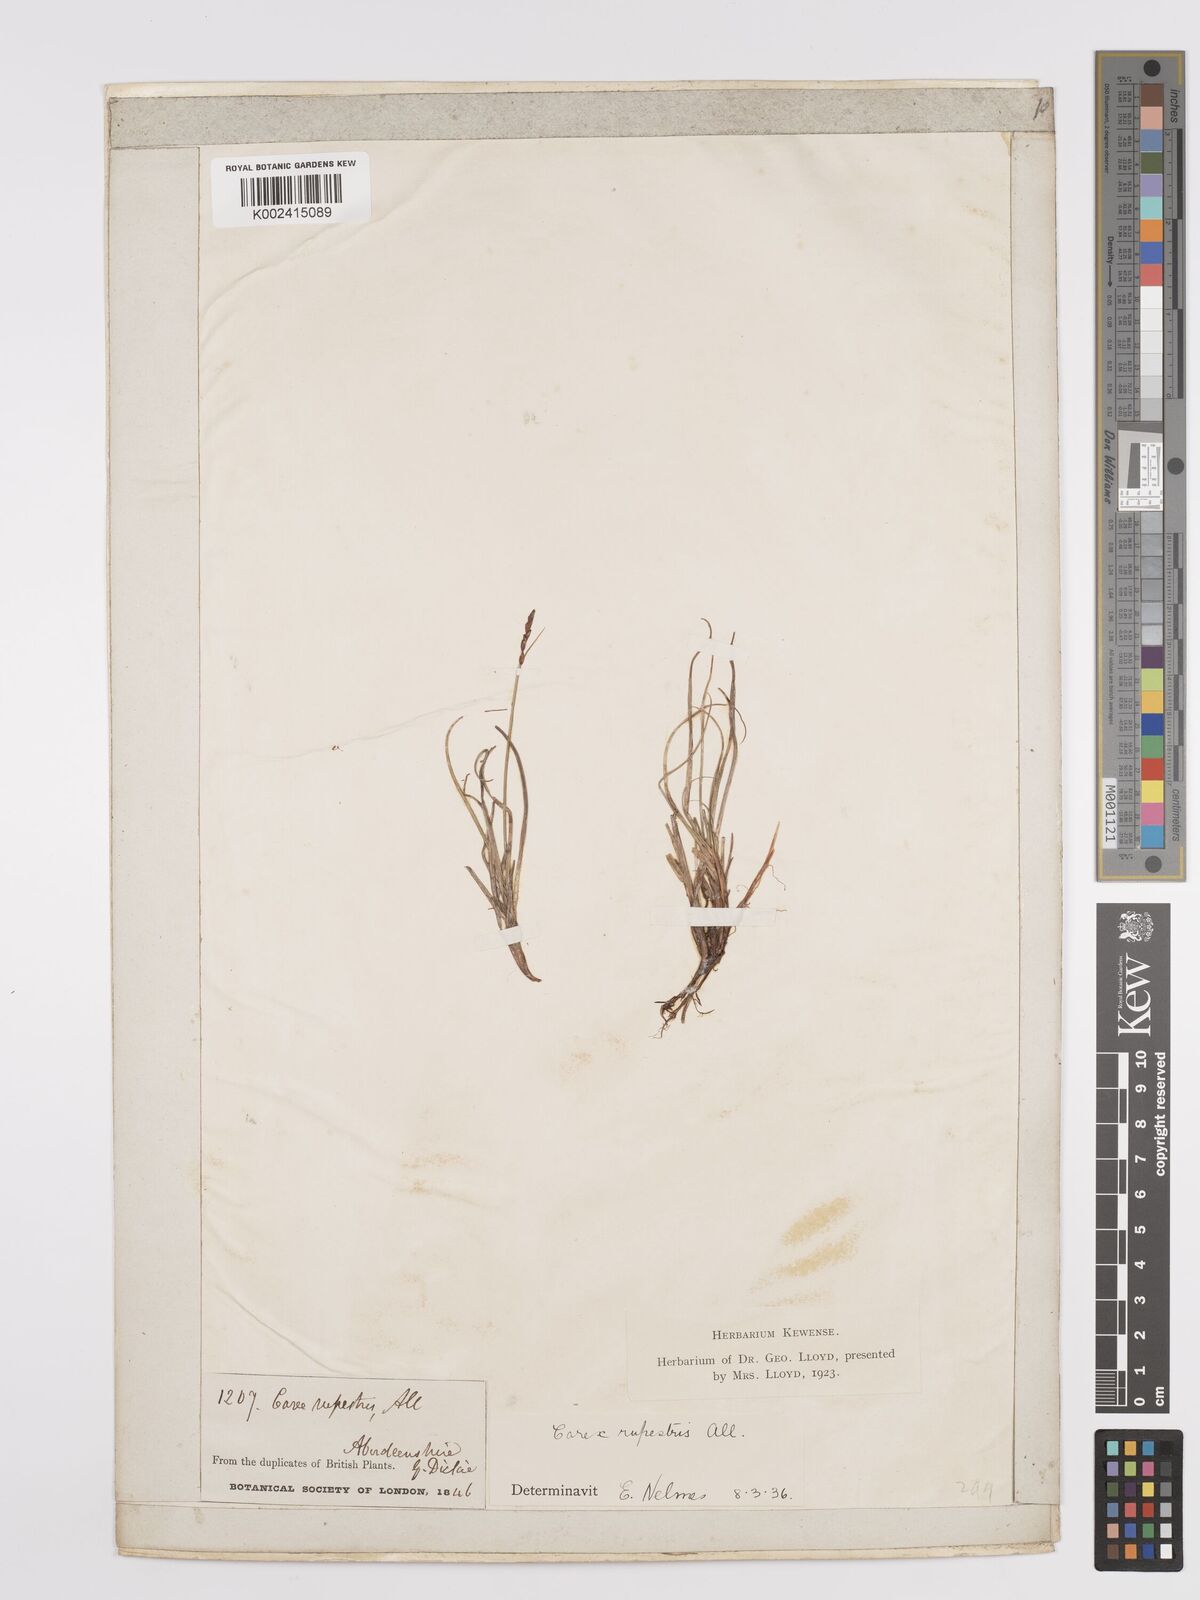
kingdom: Plantae
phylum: Tracheophyta
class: Liliopsida
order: Poales
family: Cyperaceae
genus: Carex
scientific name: Carex rupestris
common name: Rock sedge
